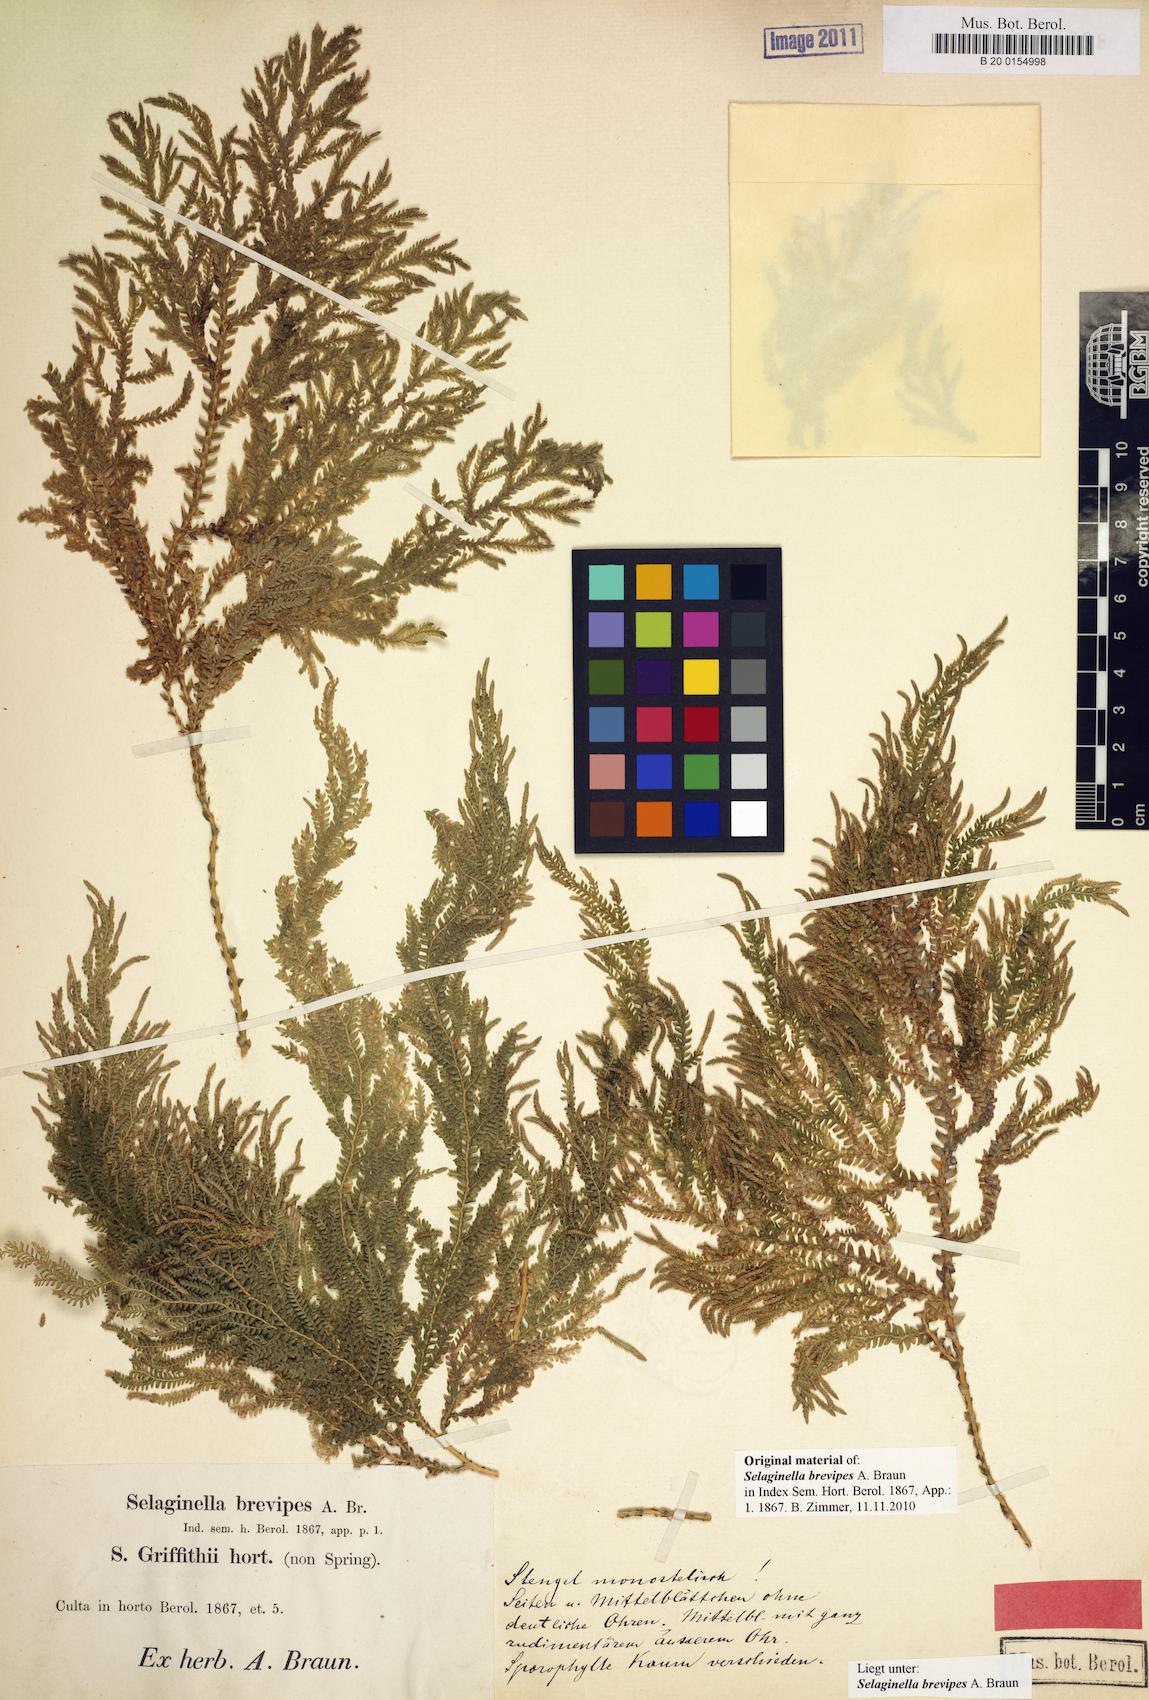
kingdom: Plantae
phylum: Tracheophyta
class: Lycopodiopsida
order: Selaginellales
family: Selaginellaceae
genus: Selaginella
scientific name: Selaginella brevipes
